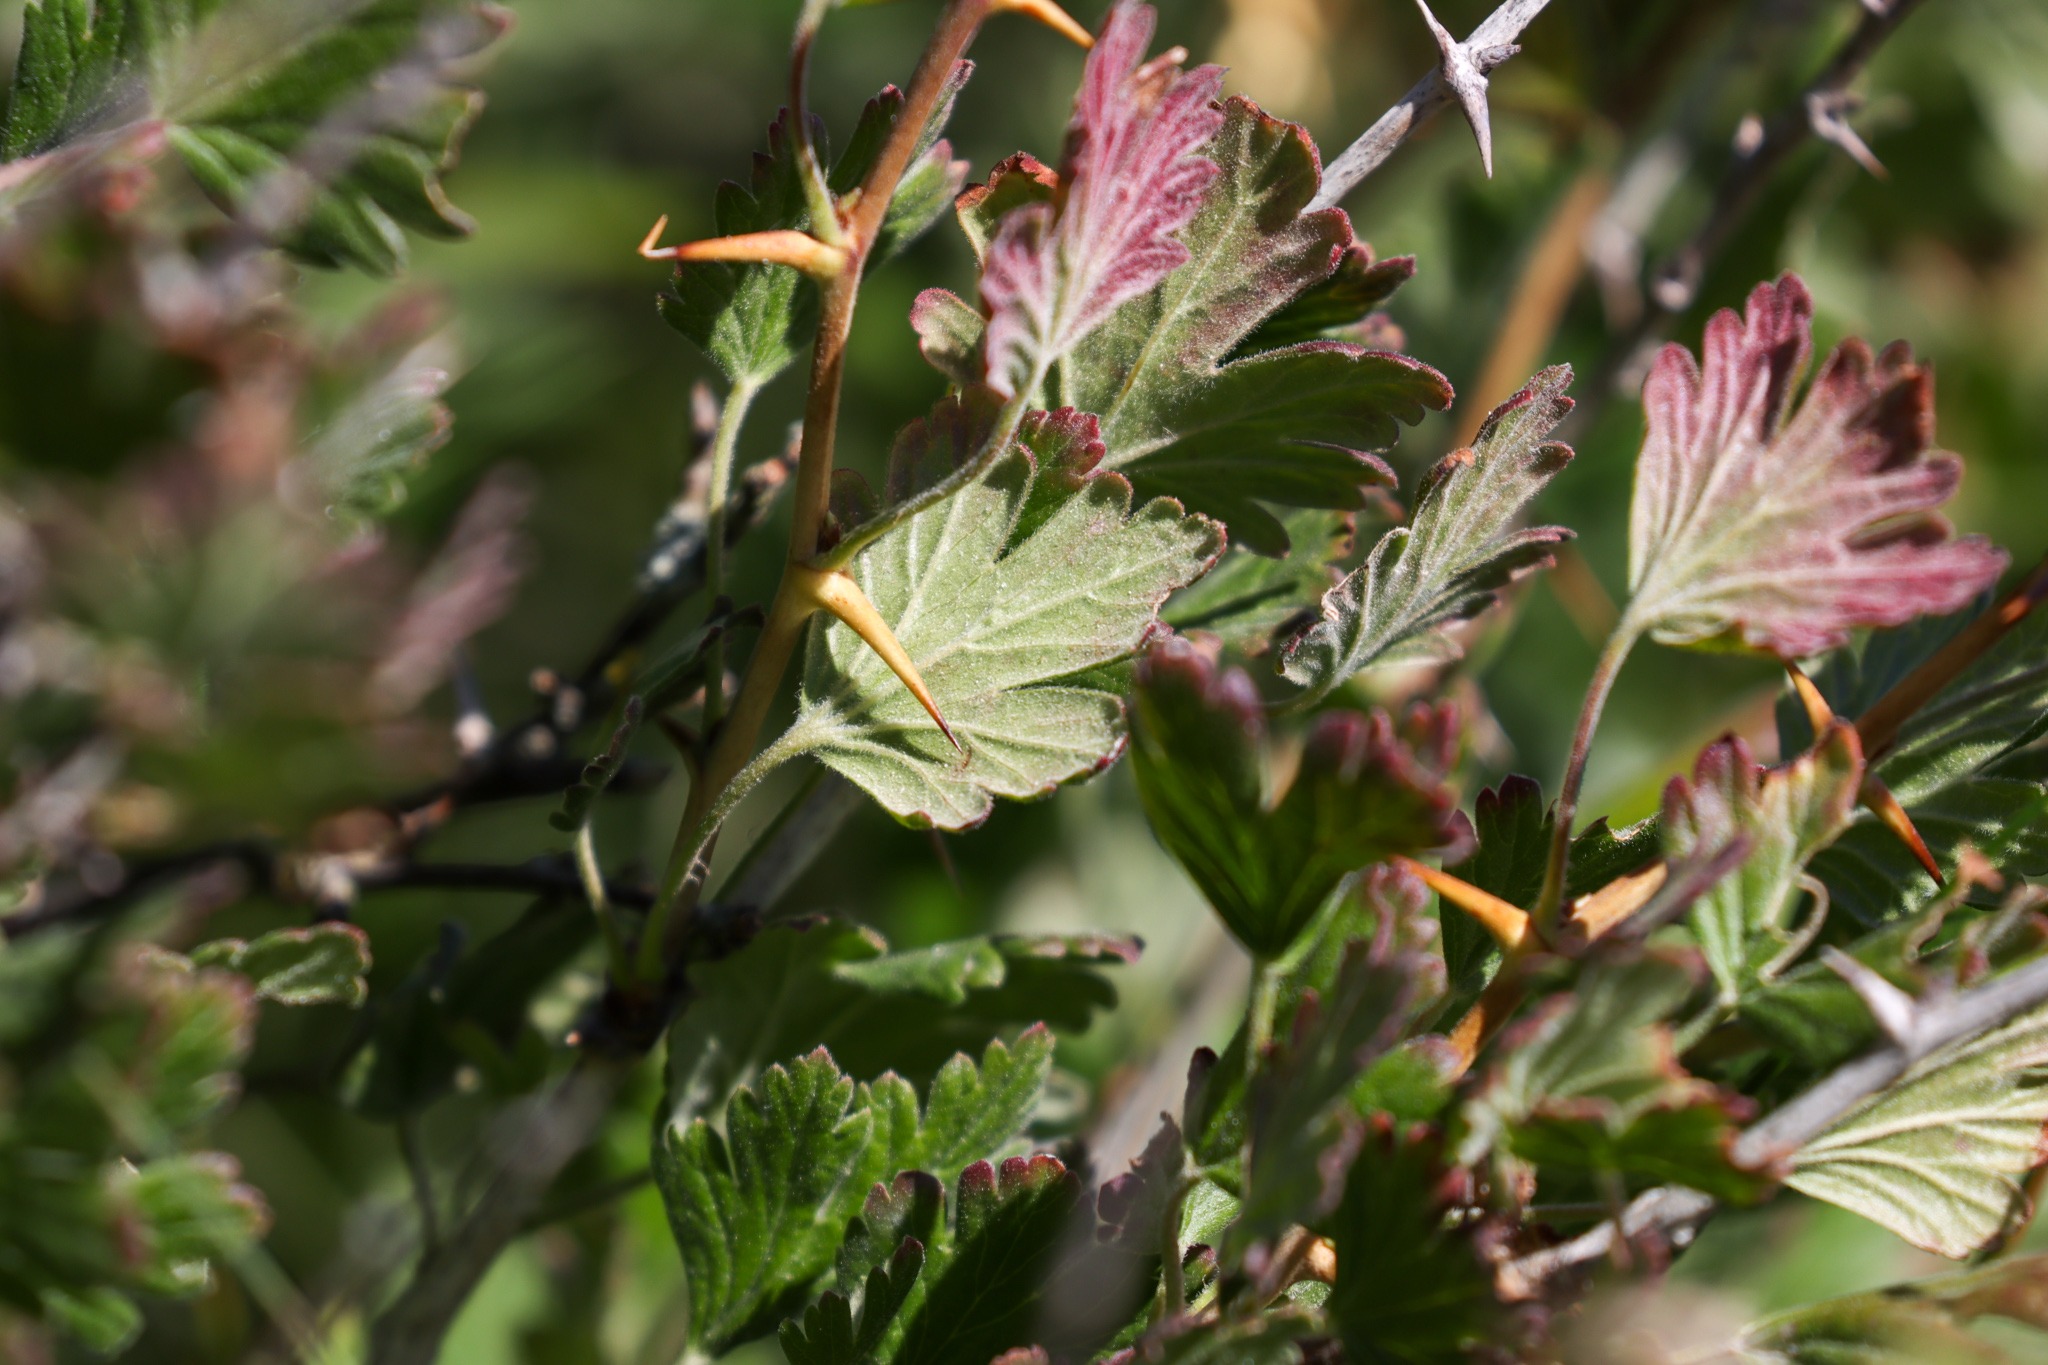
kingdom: Plantae
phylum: Tracheophyta
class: Magnoliopsida
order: Saxifragales
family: Grossulariaceae
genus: Ribes
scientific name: Ribes uva-crispa
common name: Stikkelsbær
